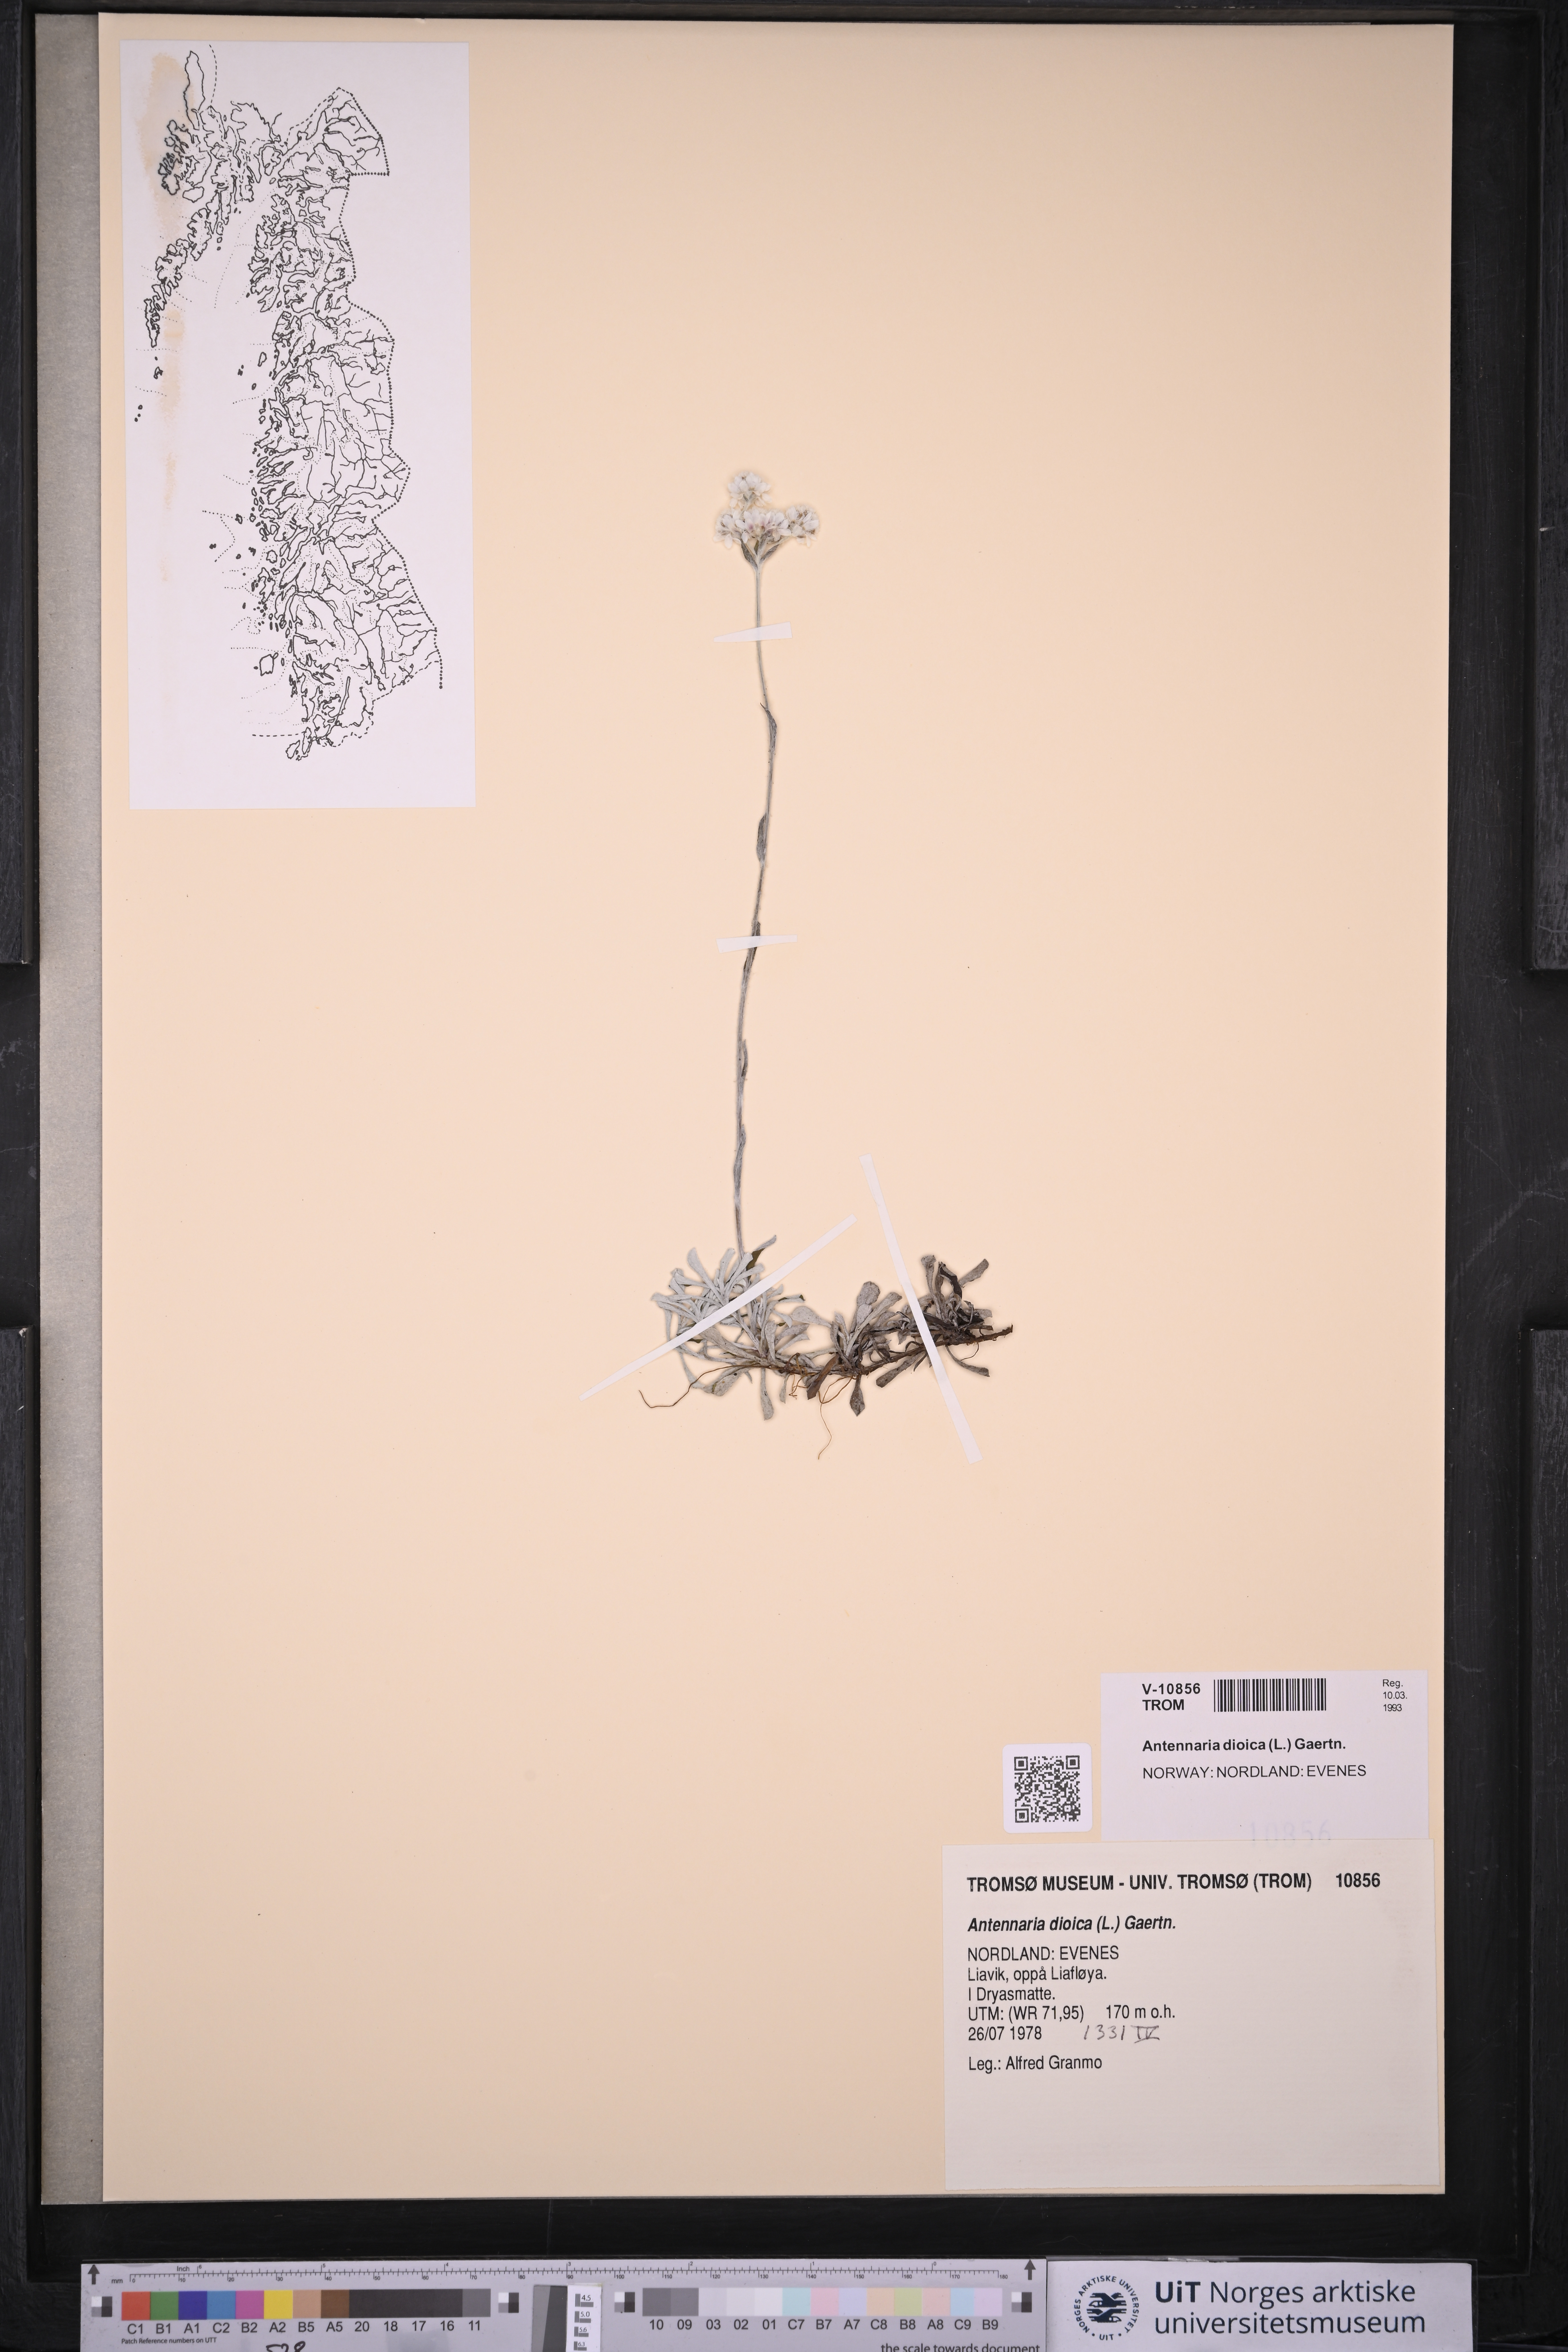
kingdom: Plantae
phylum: Tracheophyta
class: Magnoliopsida
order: Asterales
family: Asteraceae
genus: Antennaria
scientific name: Antennaria dioica
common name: Mountain everlasting
